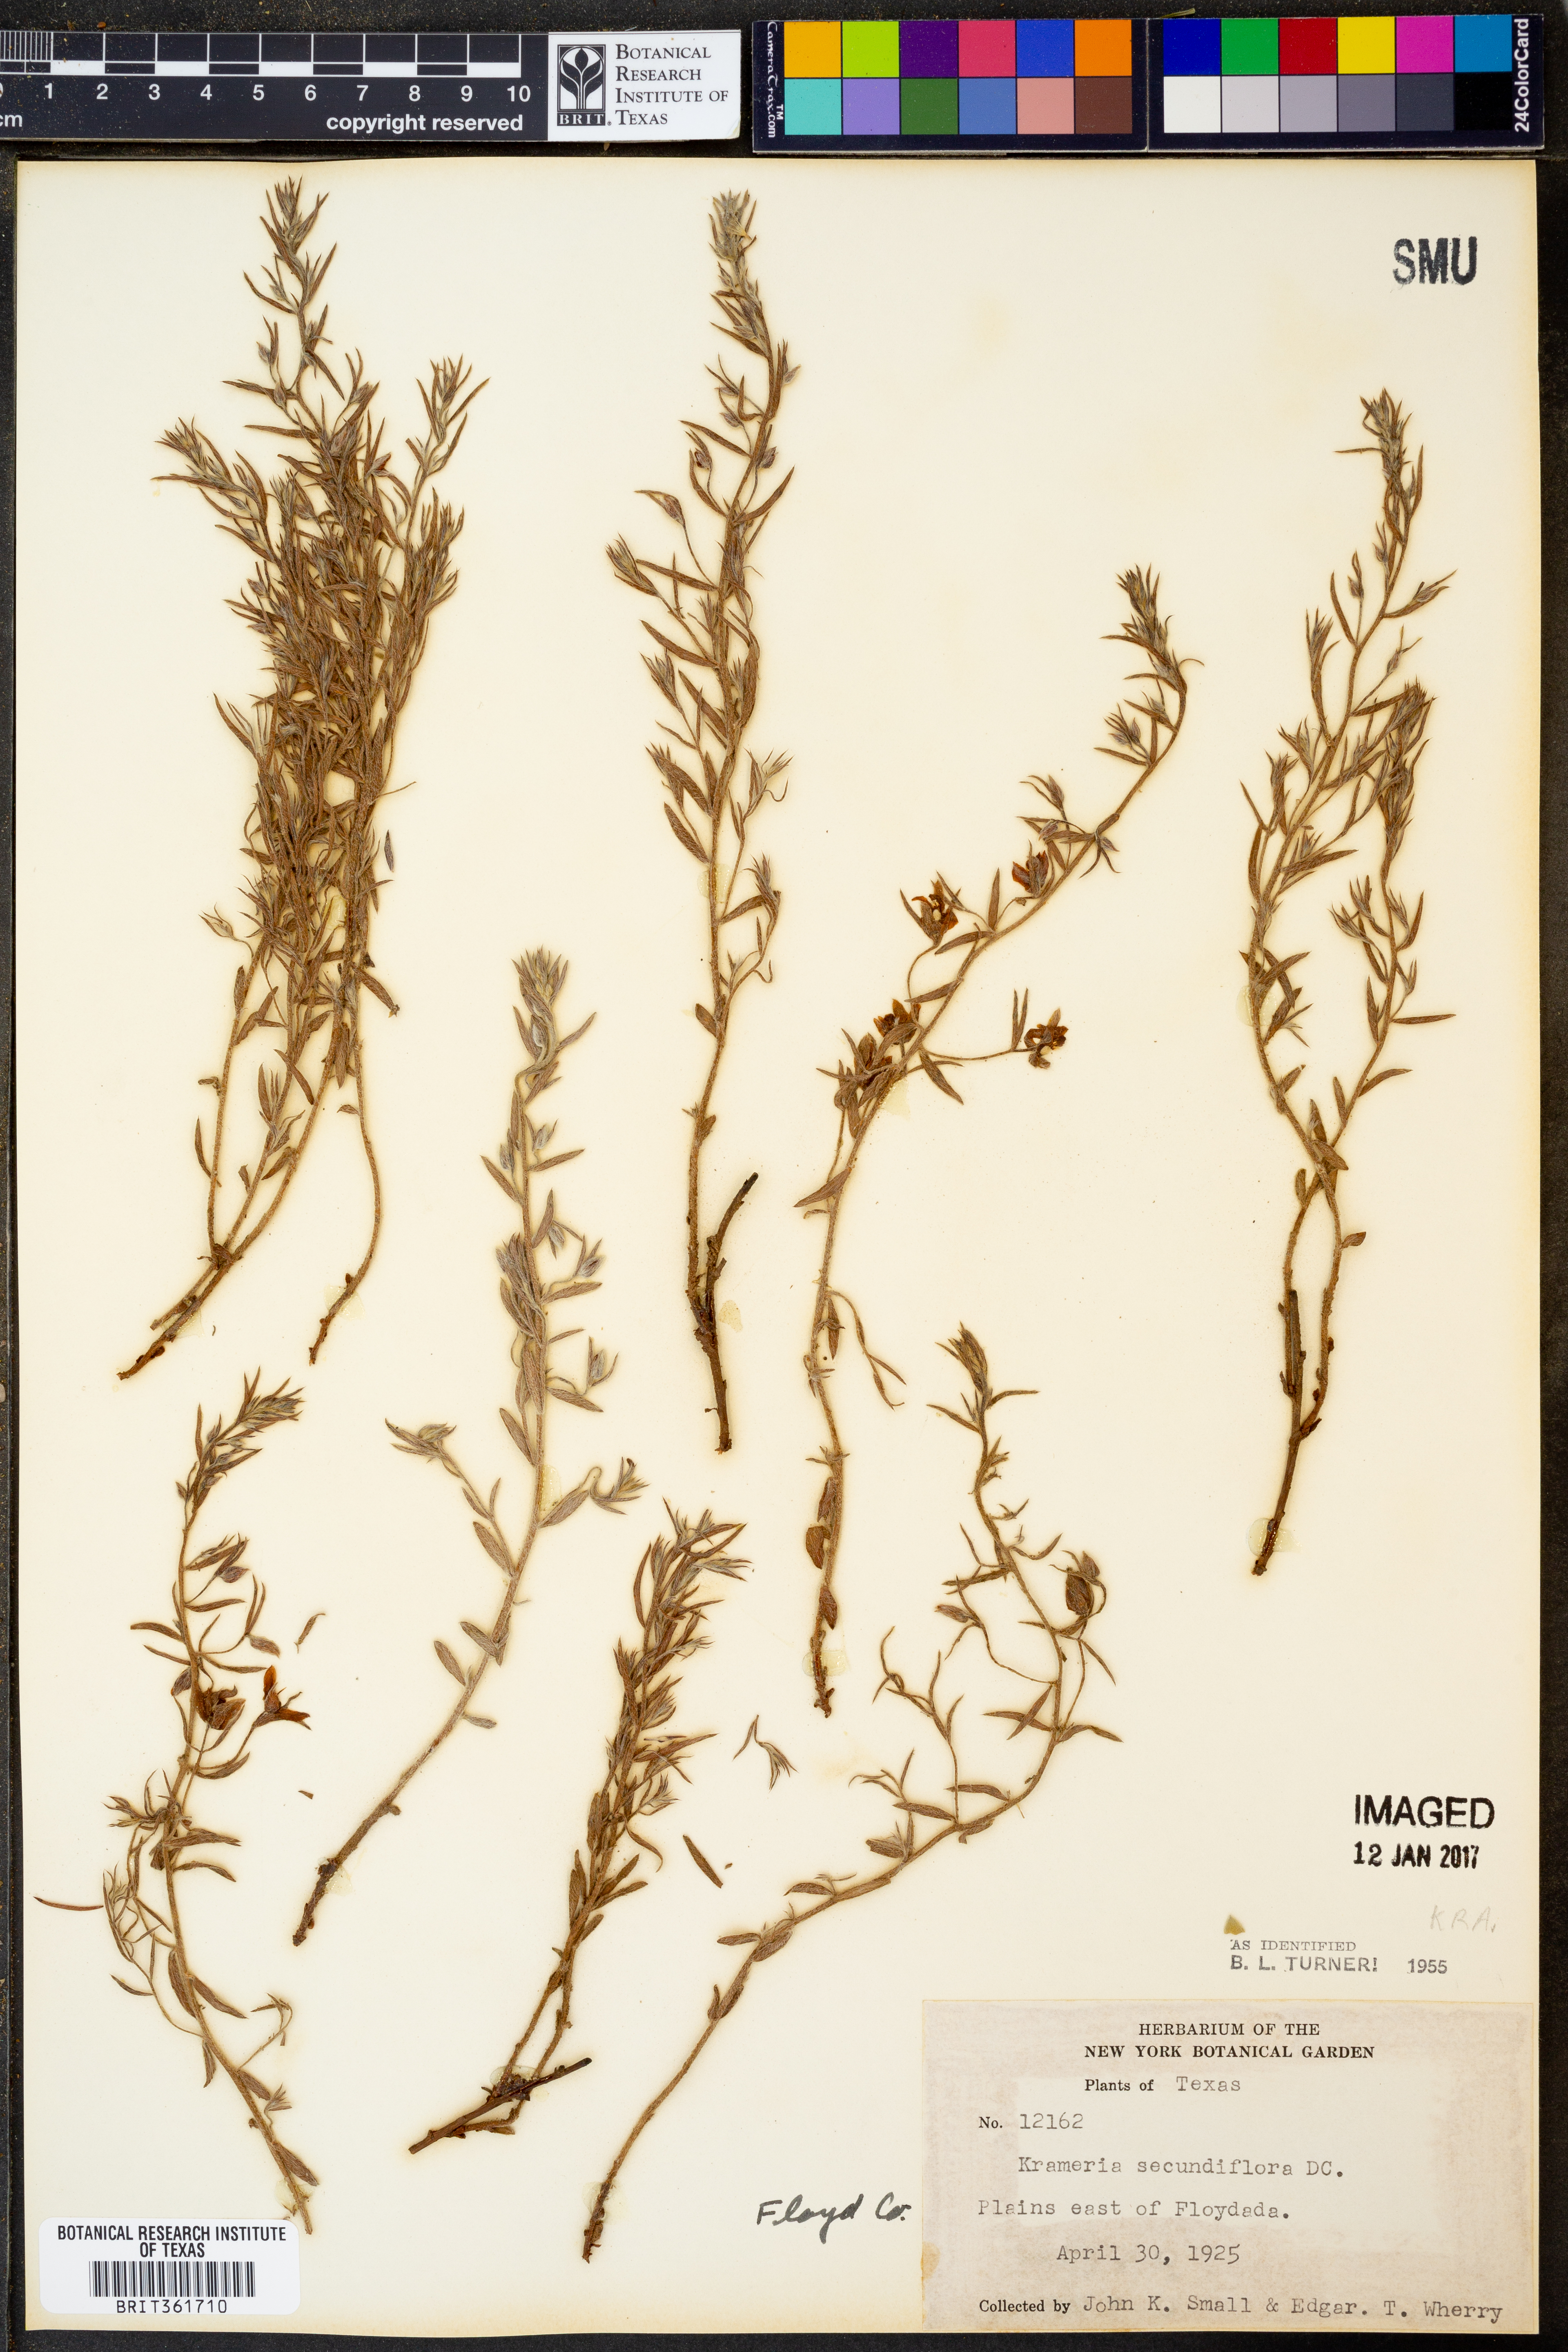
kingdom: Plantae
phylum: Tracheophyta
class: Magnoliopsida
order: Zygophyllales
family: Krameriaceae
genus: Krameria
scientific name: Krameria secundiflora
